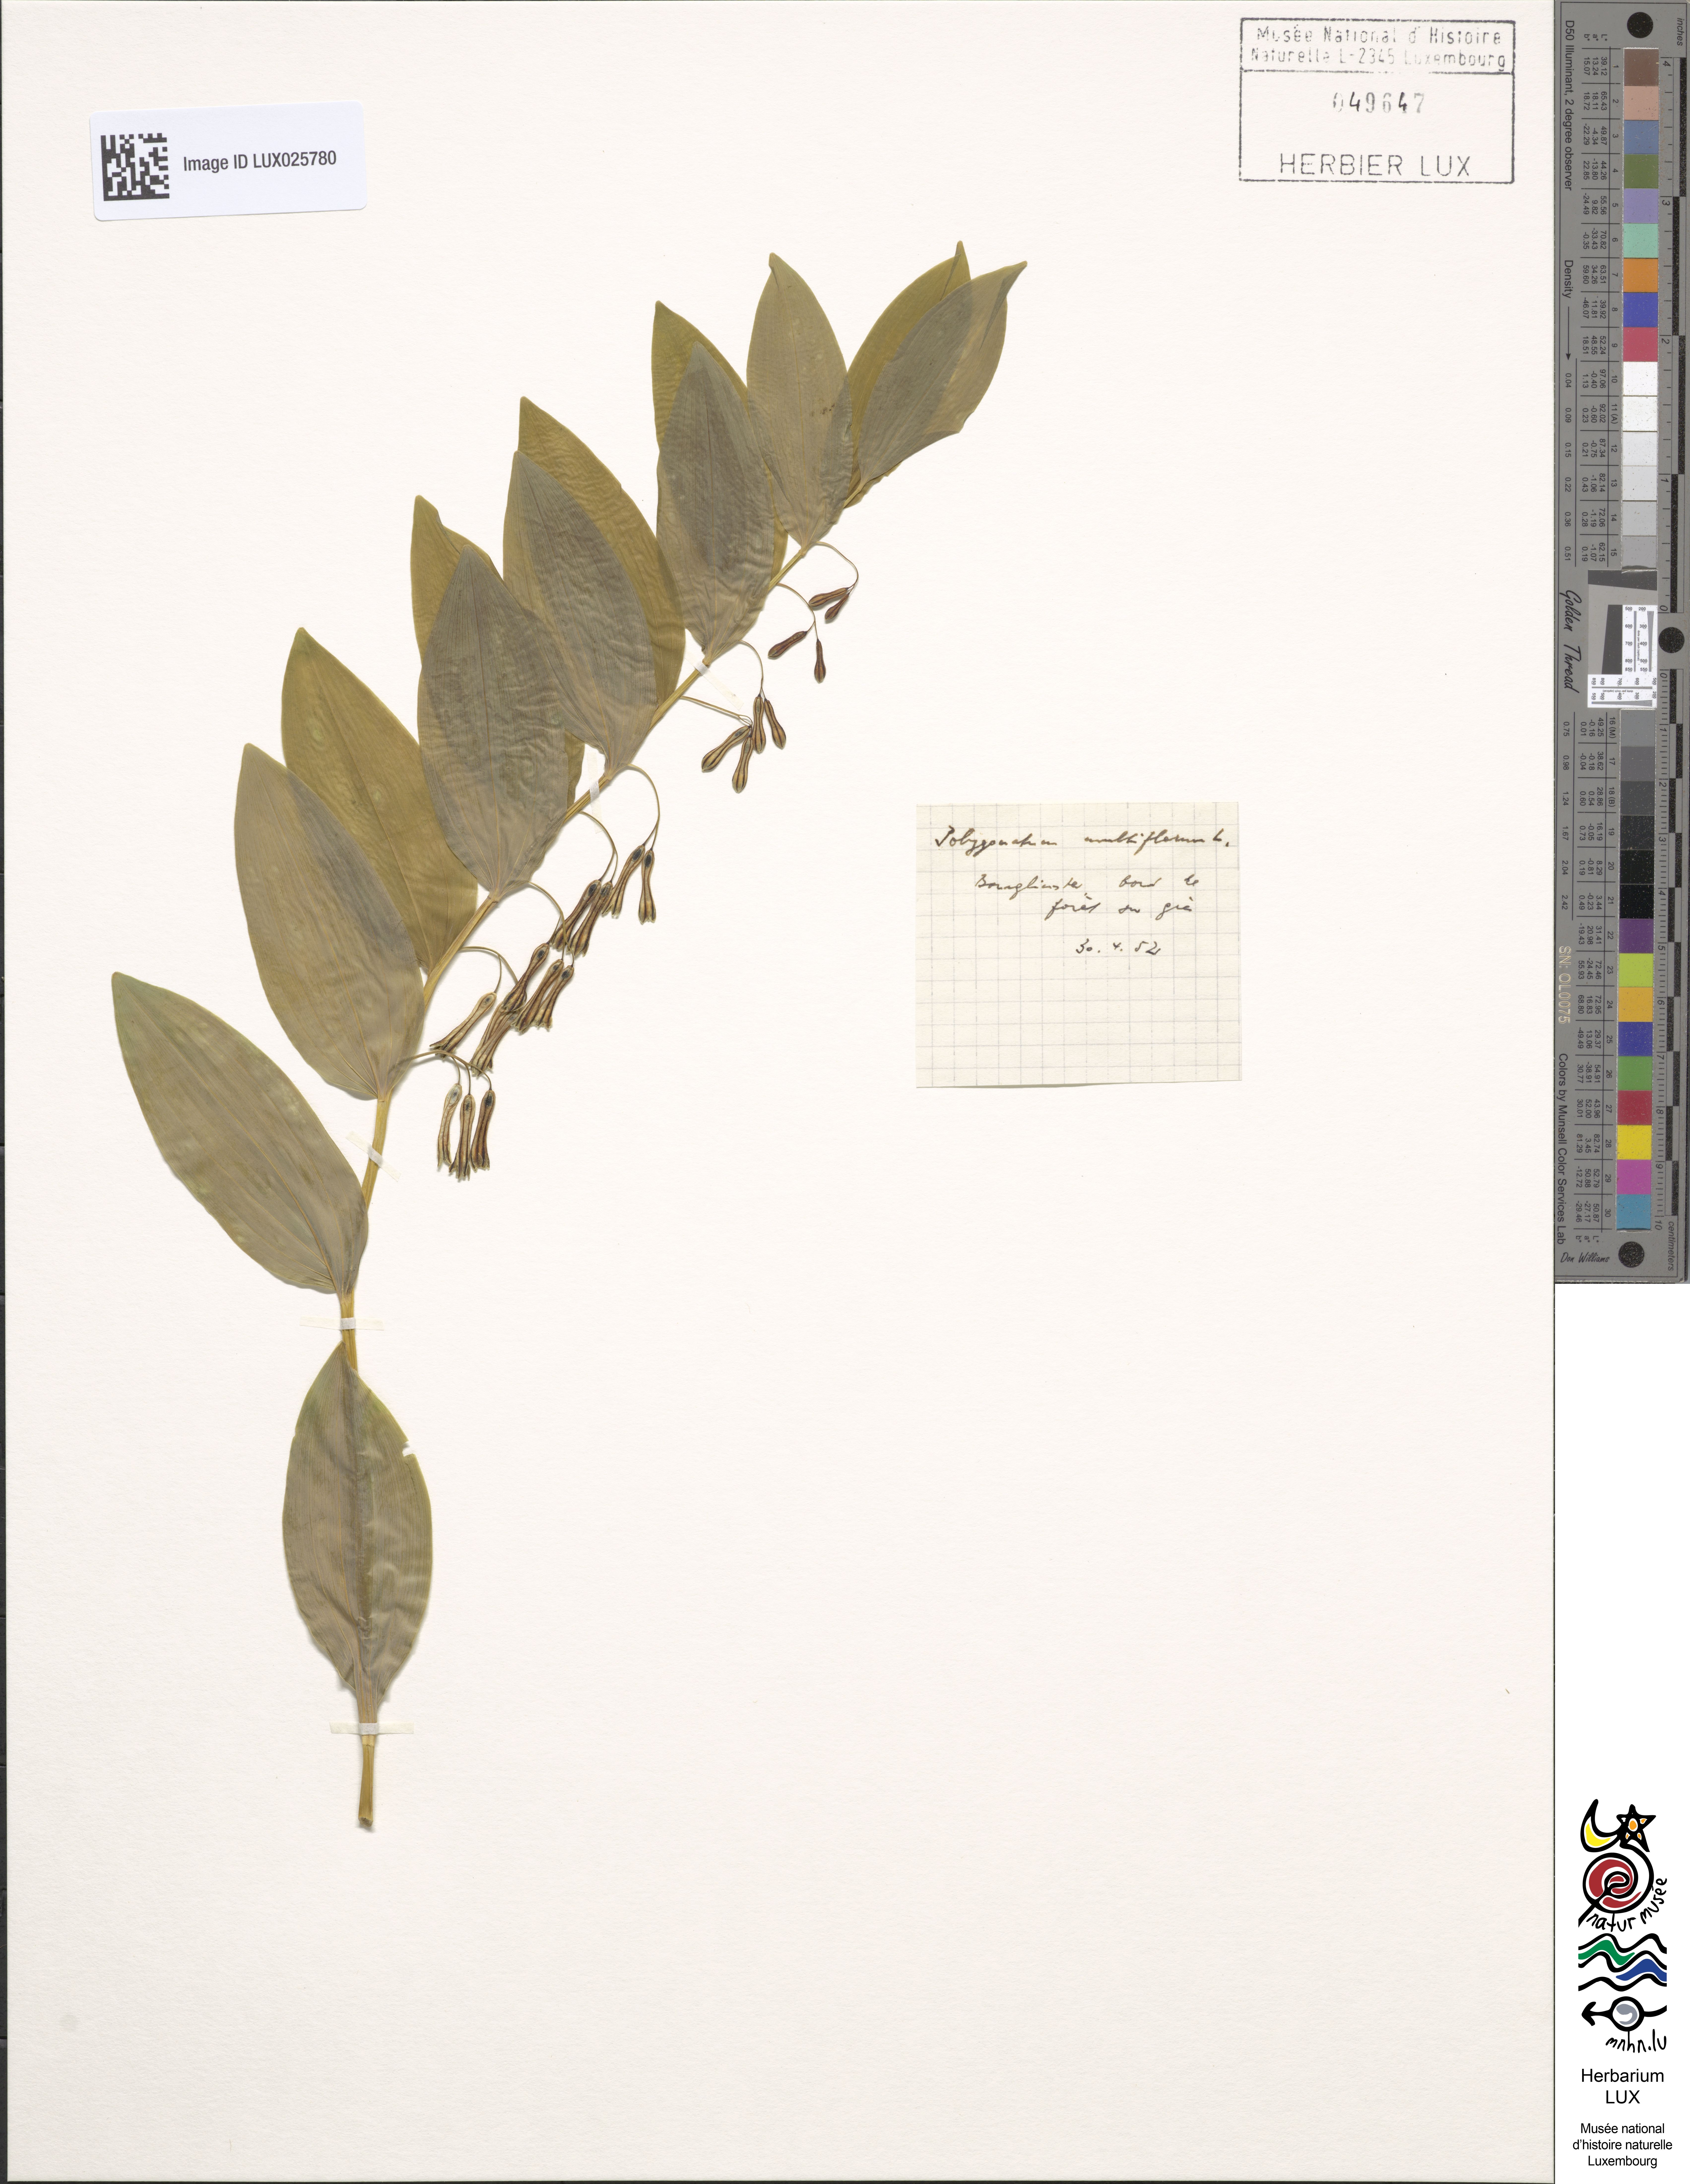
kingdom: Plantae
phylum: Tracheophyta
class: Liliopsida
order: Asparagales
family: Asparagaceae
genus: Polygonatum
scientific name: Polygonatum multiflorum
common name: Solomon's-seal
